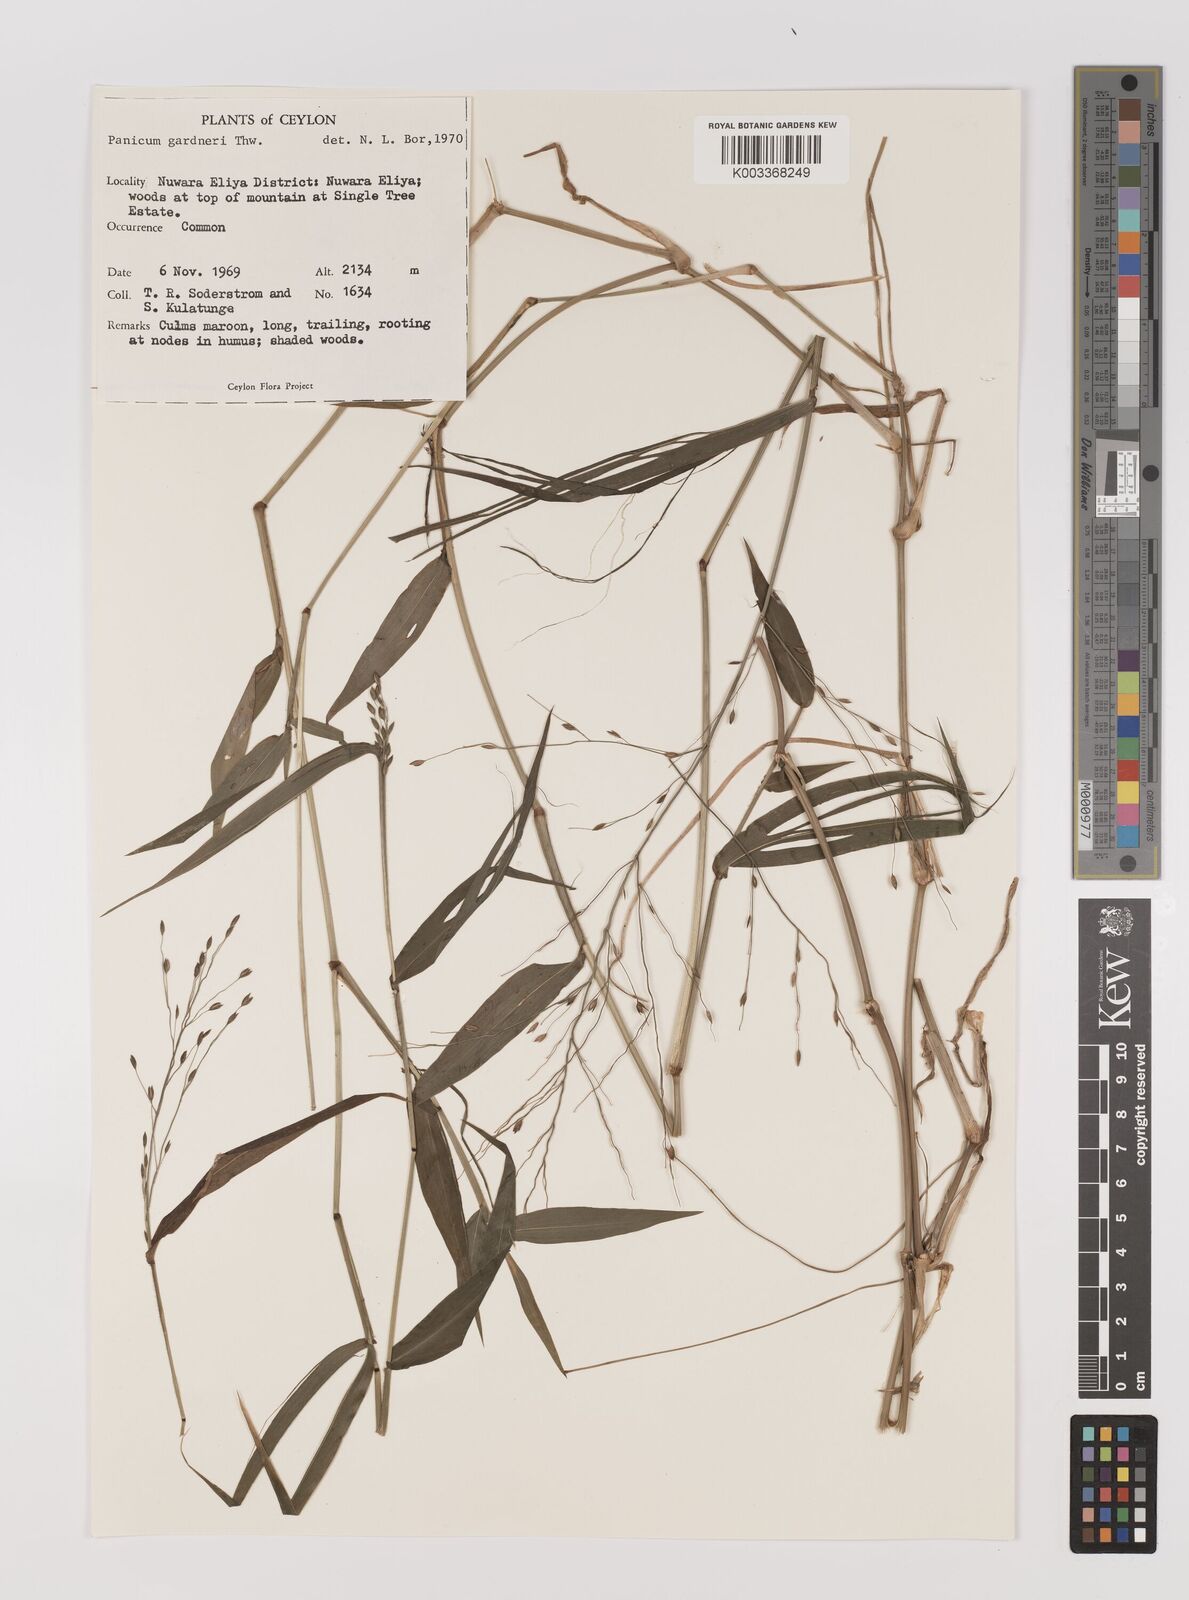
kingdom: Plantae
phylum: Tracheophyta
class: Liliopsida
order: Poales
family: Poaceae
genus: Panicum
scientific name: Panicum gardneri
